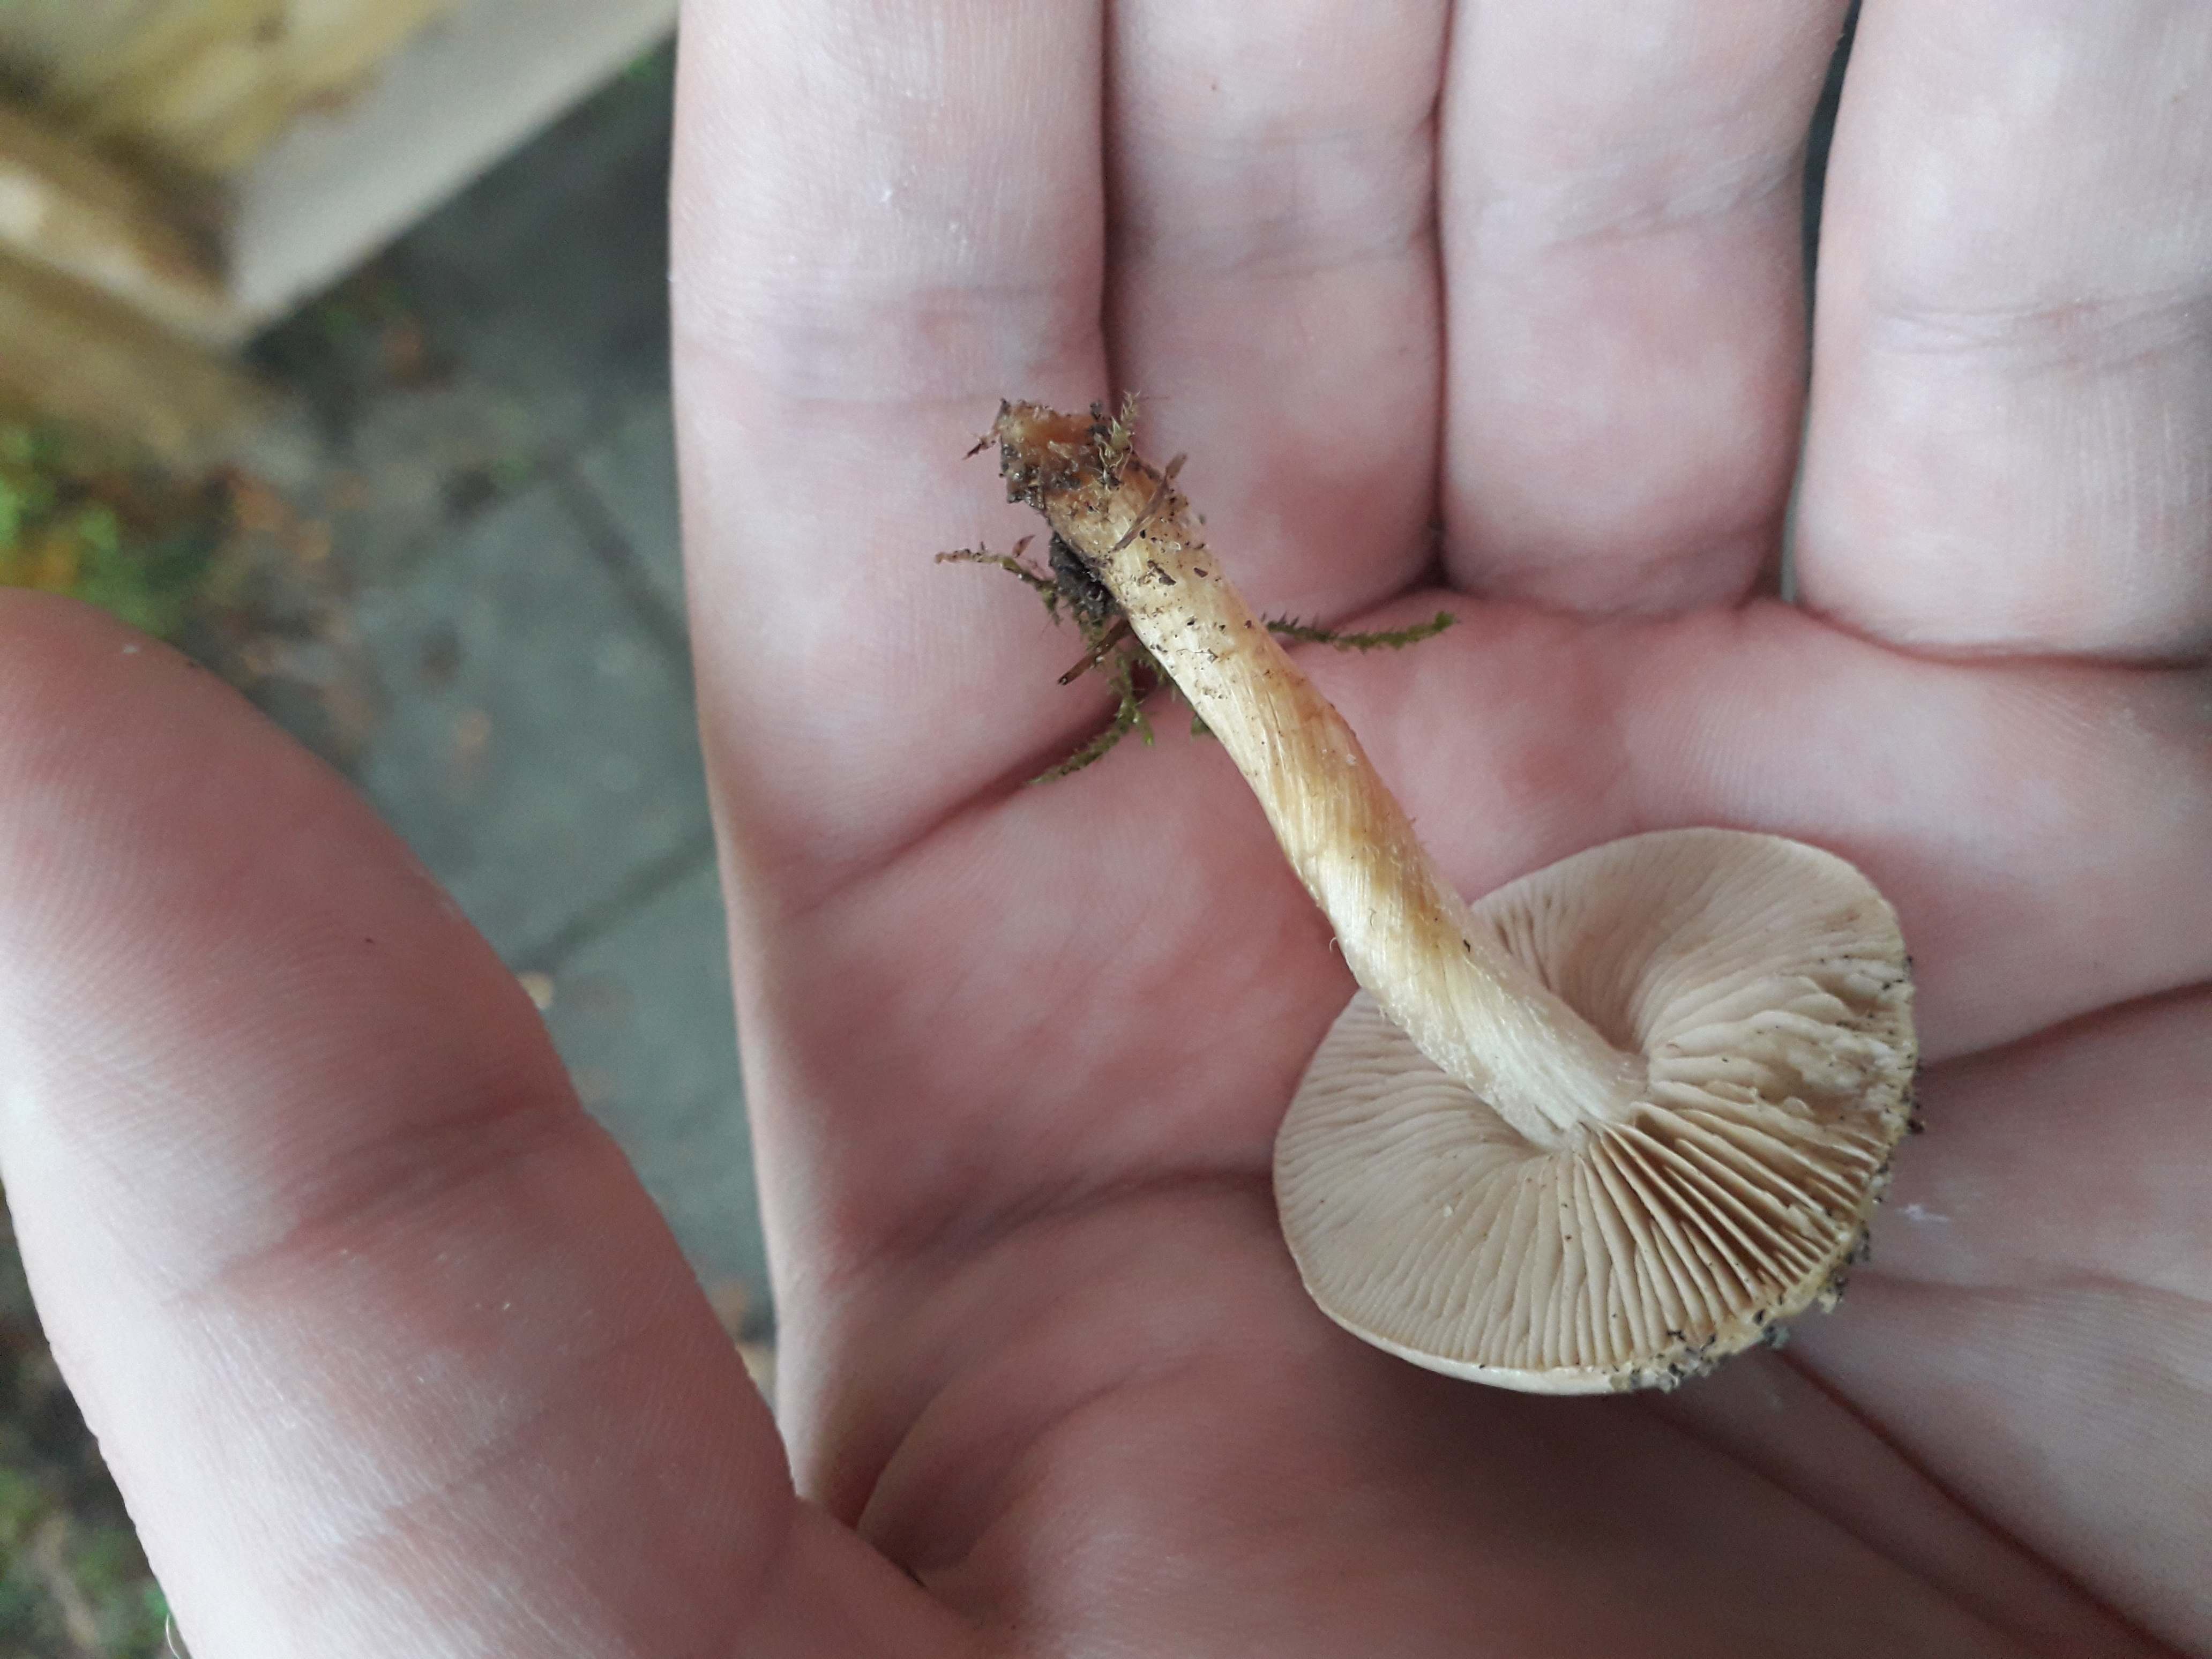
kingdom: Fungi
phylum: Basidiomycota
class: Agaricomycetes
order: Agaricales
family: Hymenogastraceae
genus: Hebeloma
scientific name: Hebeloma
